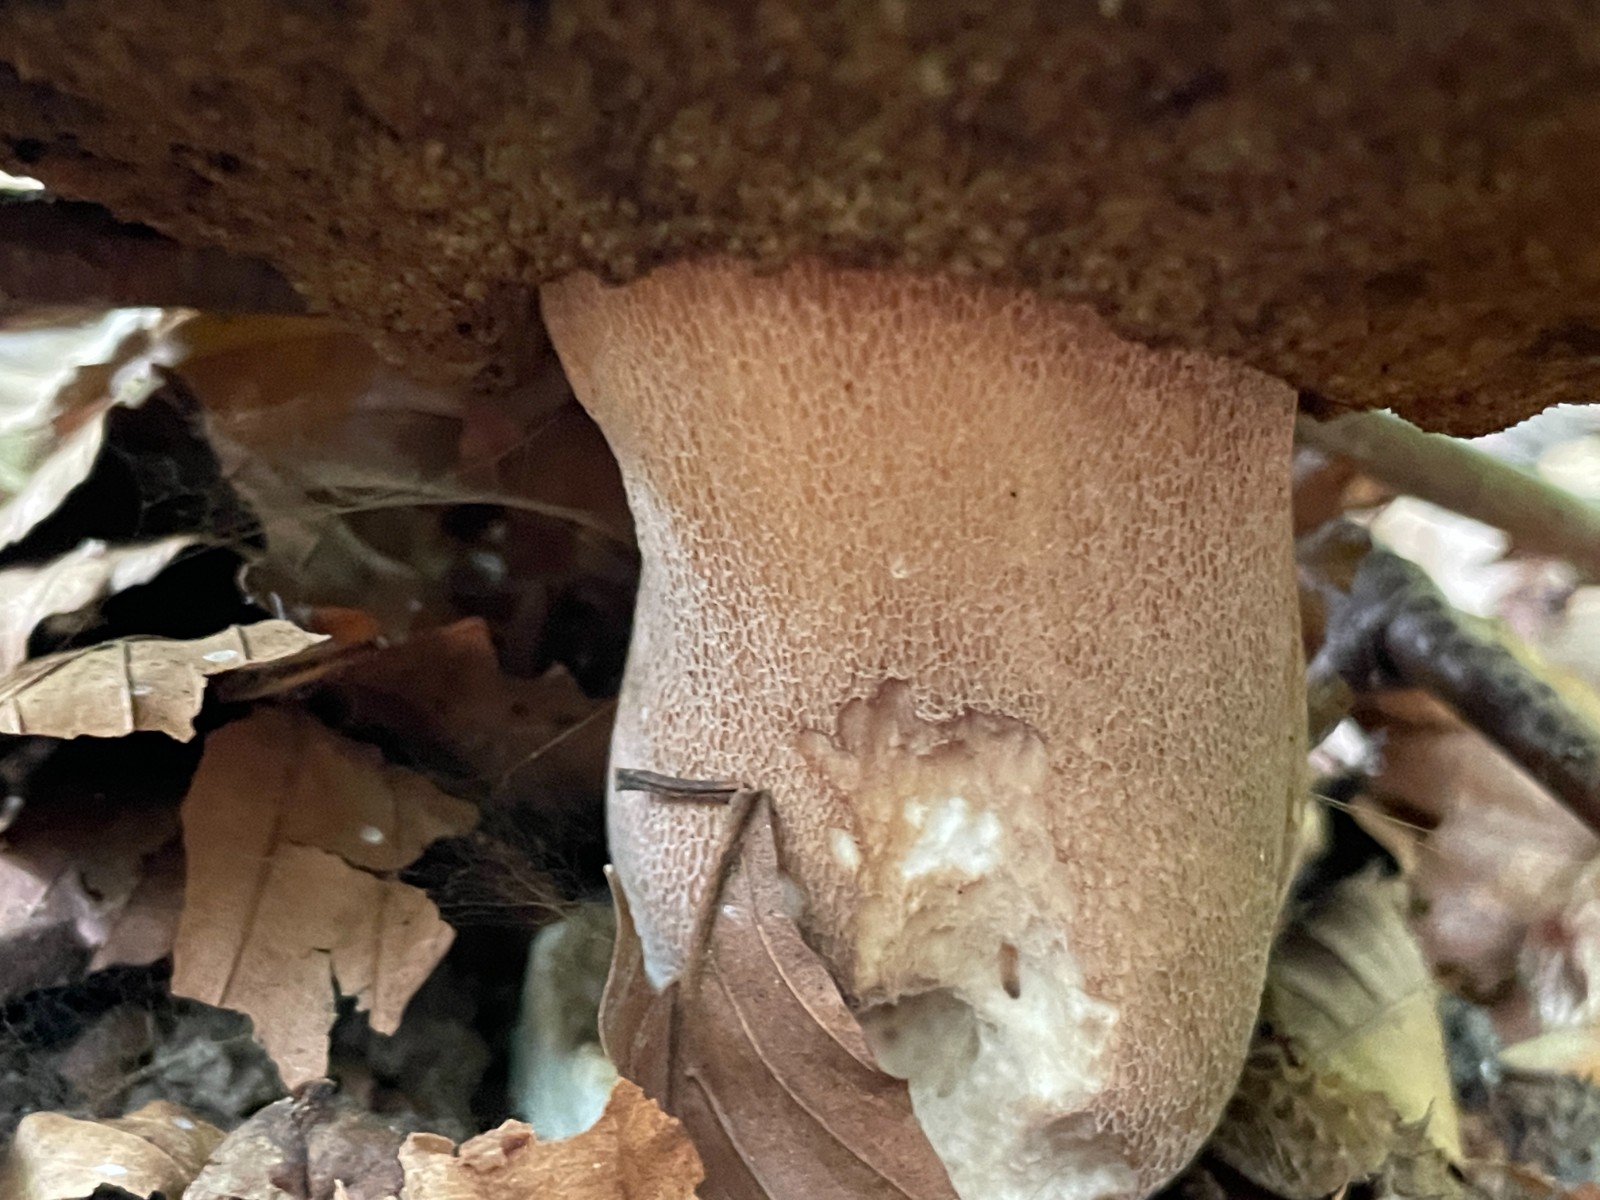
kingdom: Fungi
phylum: Basidiomycota
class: Agaricomycetes
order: Boletales
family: Boletaceae
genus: Boletus
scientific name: Boletus edulis
